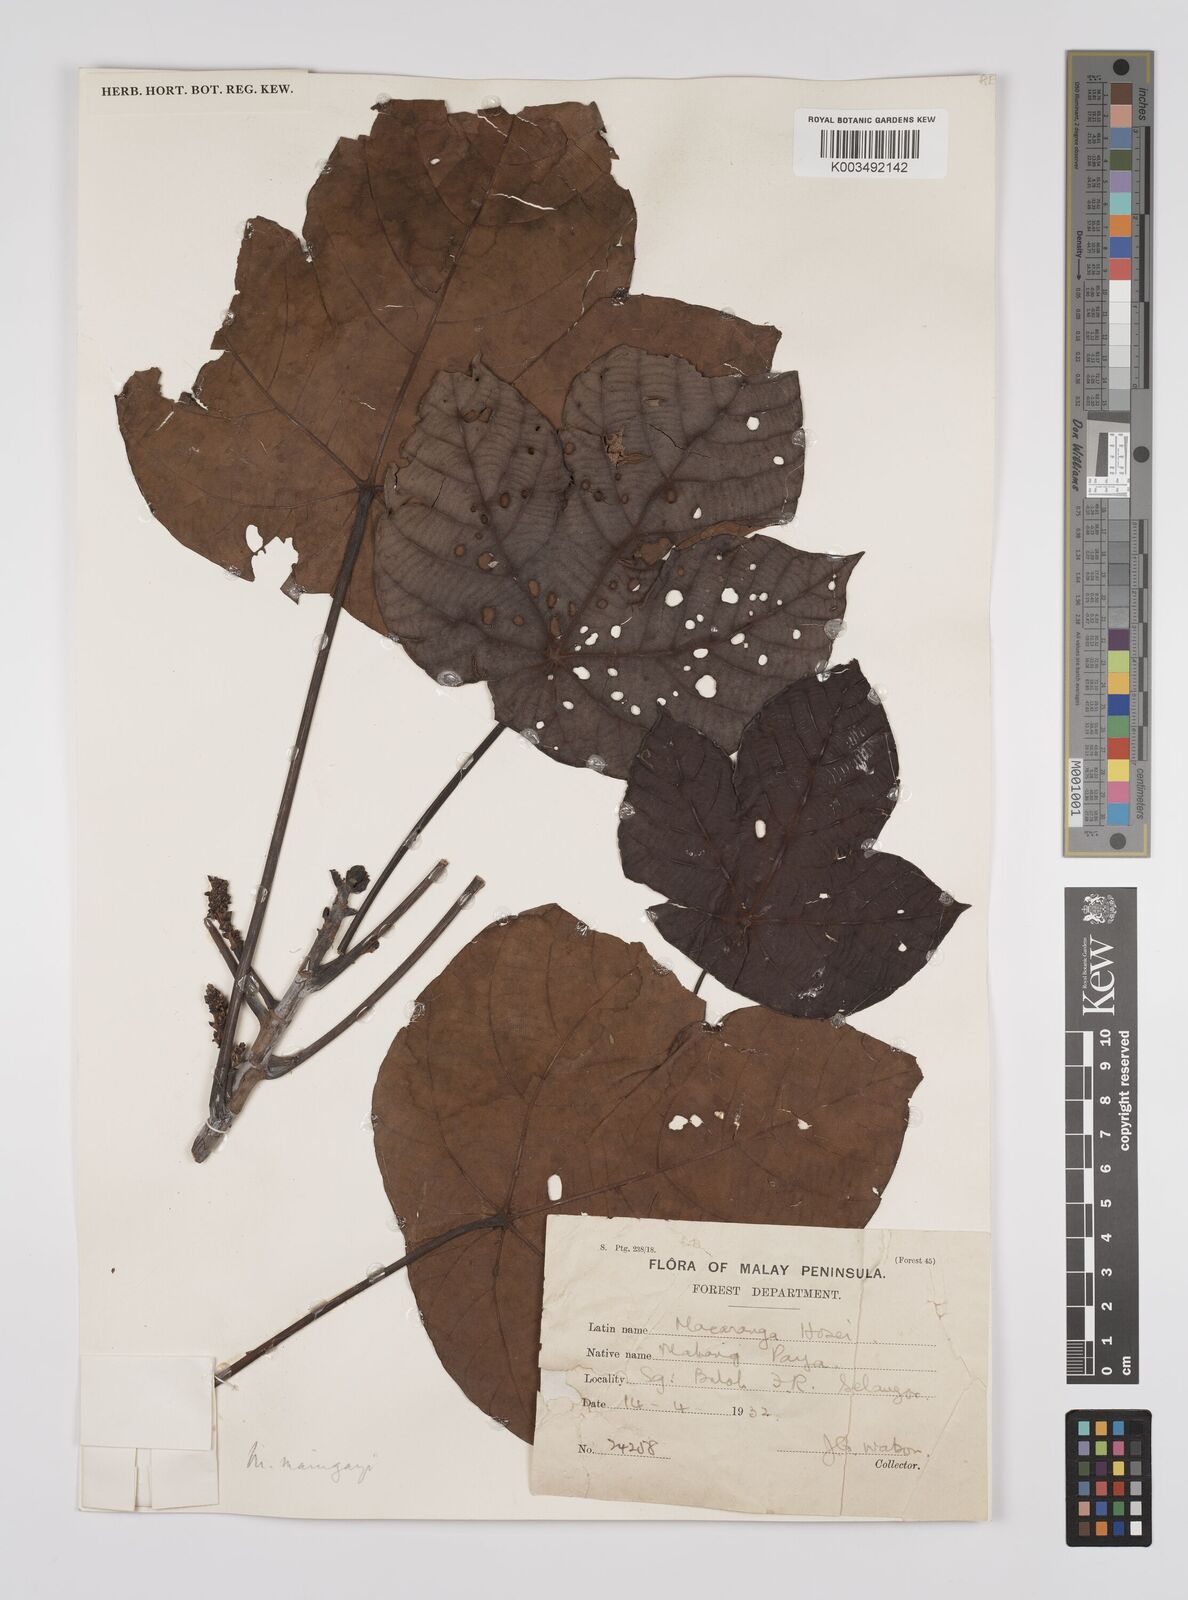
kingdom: Plantae
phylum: Tracheophyta
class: Magnoliopsida
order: Malpighiales
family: Euphorbiaceae
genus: Macaranga
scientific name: Macaranga pruinosa
